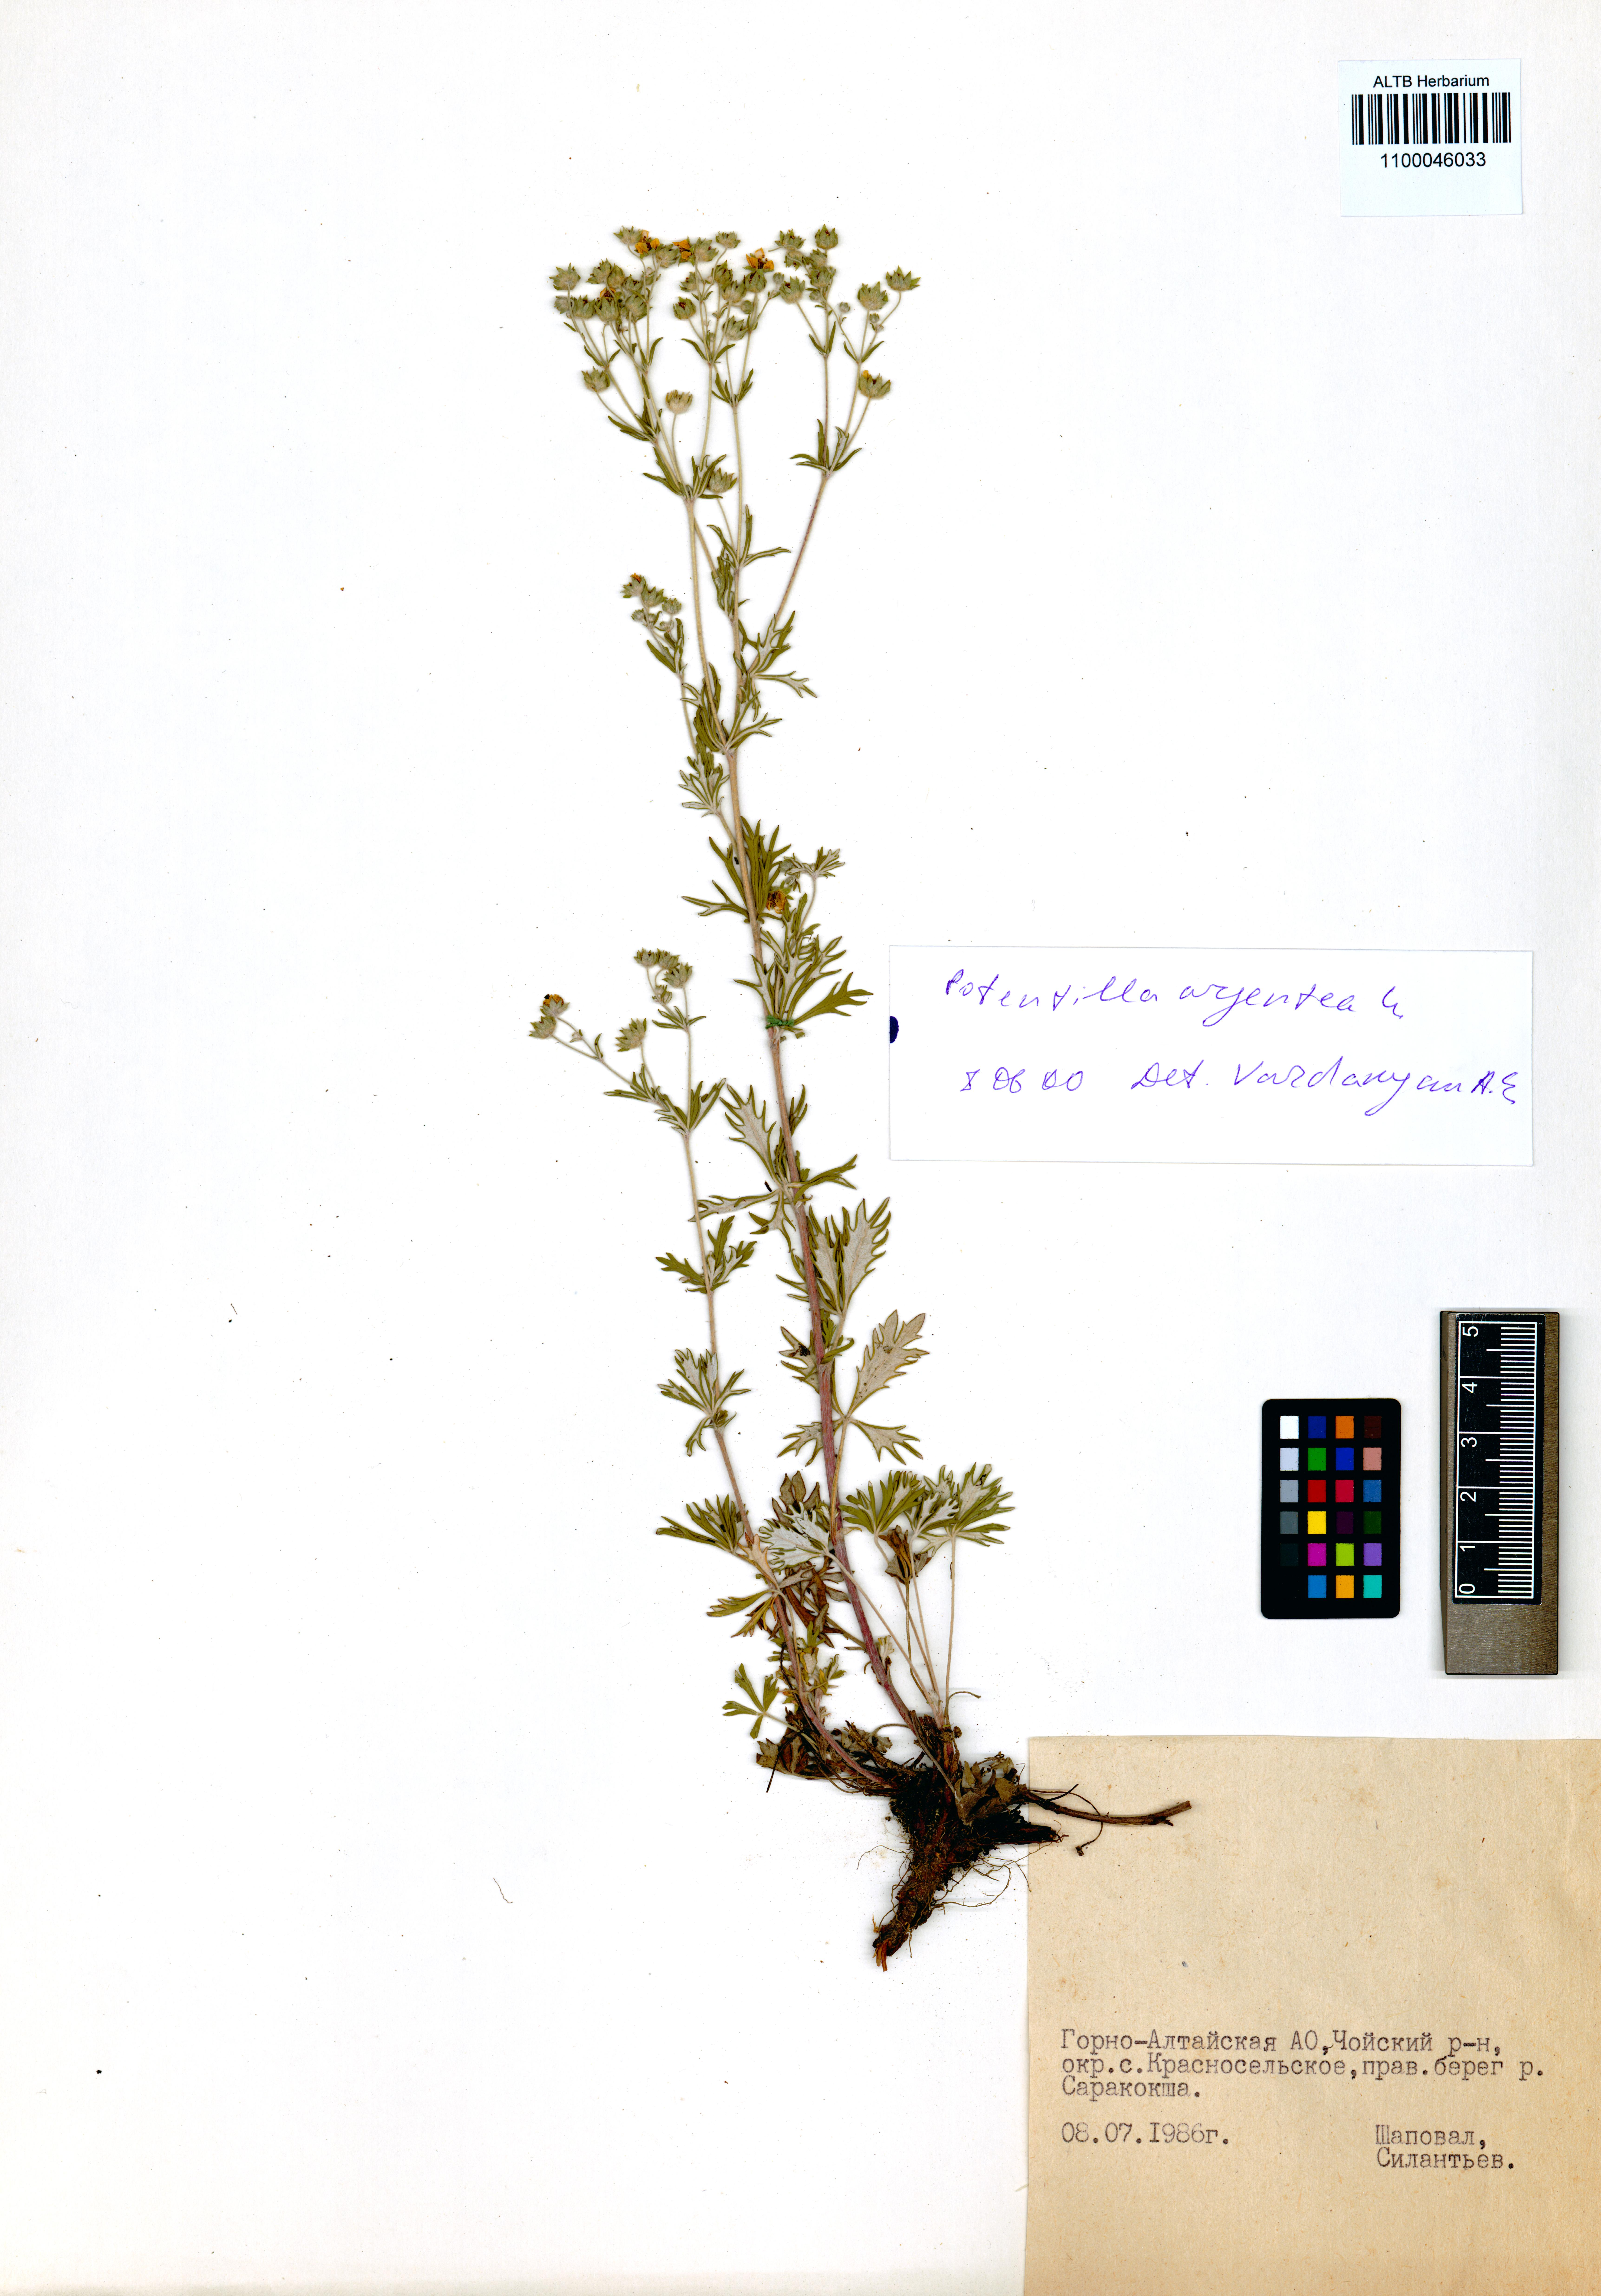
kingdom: Plantae
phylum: Tracheophyta
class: Magnoliopsida
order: Rosales
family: Rosaceae
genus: Potentilla
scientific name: Potentilla argentea
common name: Hoary cinquefoil
